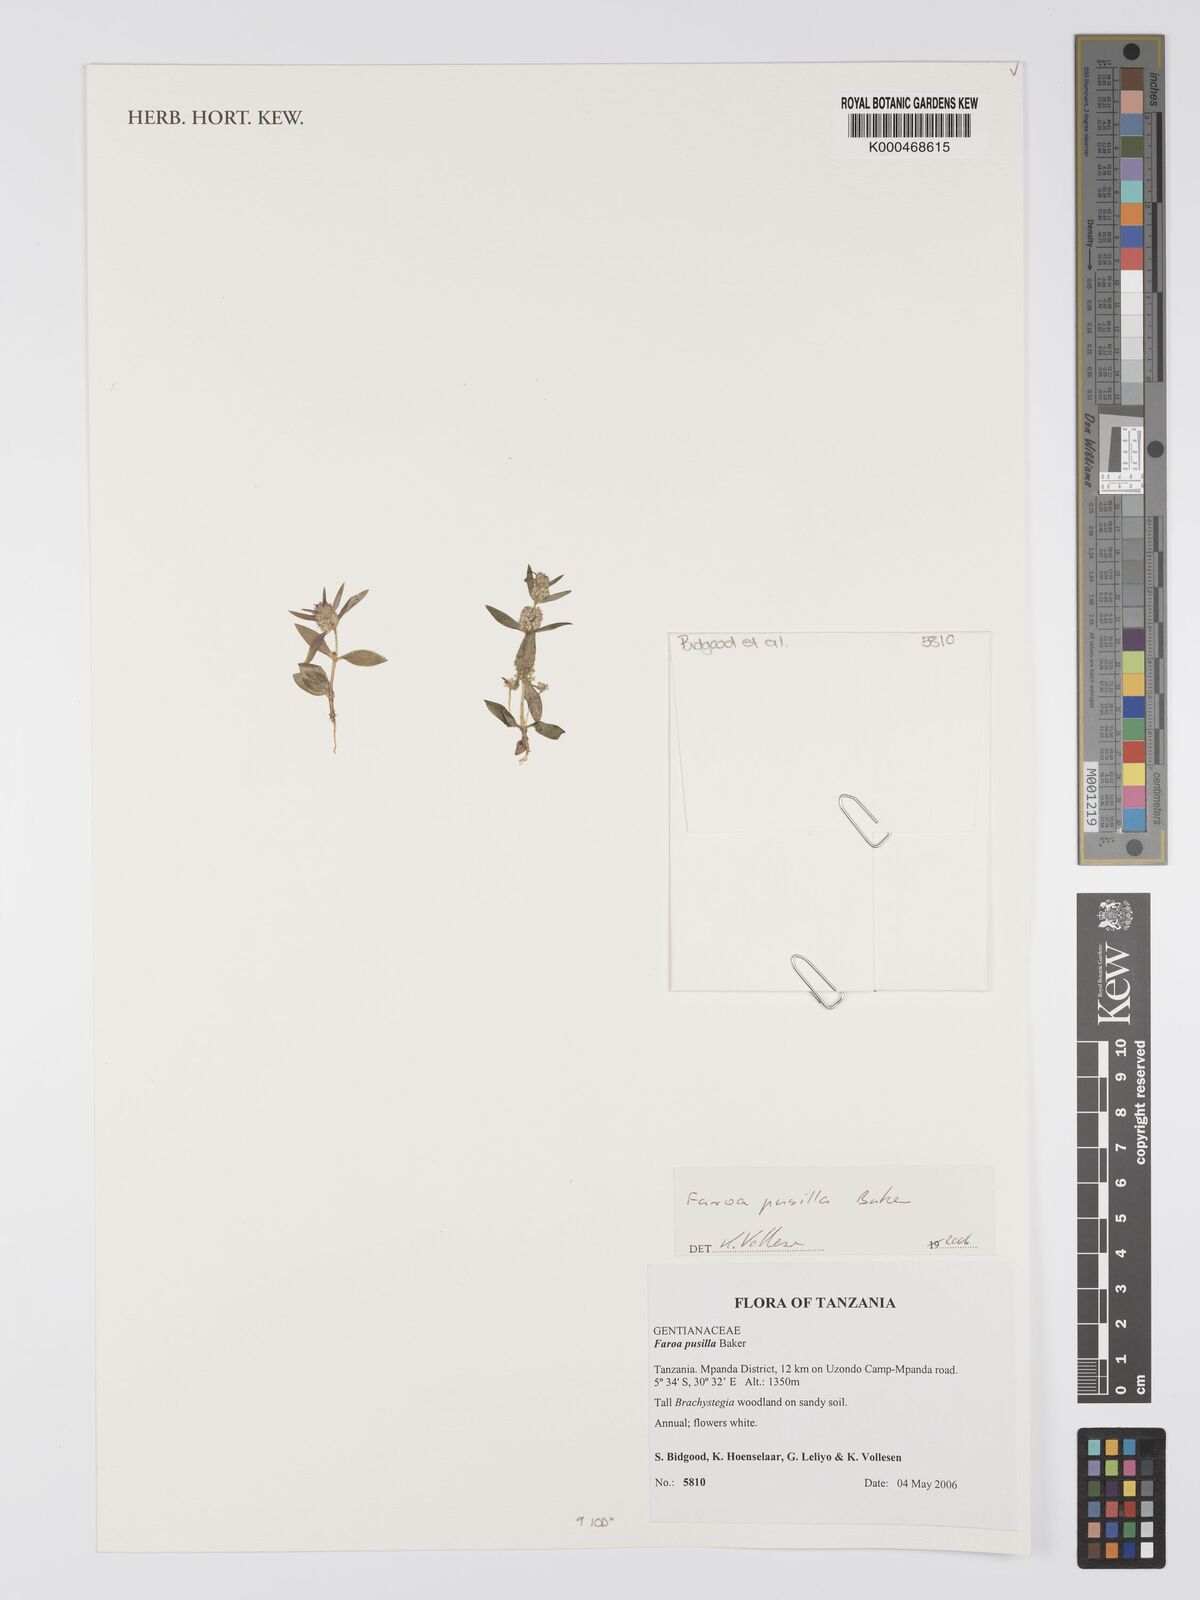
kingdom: Plantae
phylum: Tracheophyta
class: Magnoliopsida
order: Gentianales
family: Gentianaceae
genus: Faroa
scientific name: Faroa pusilla
